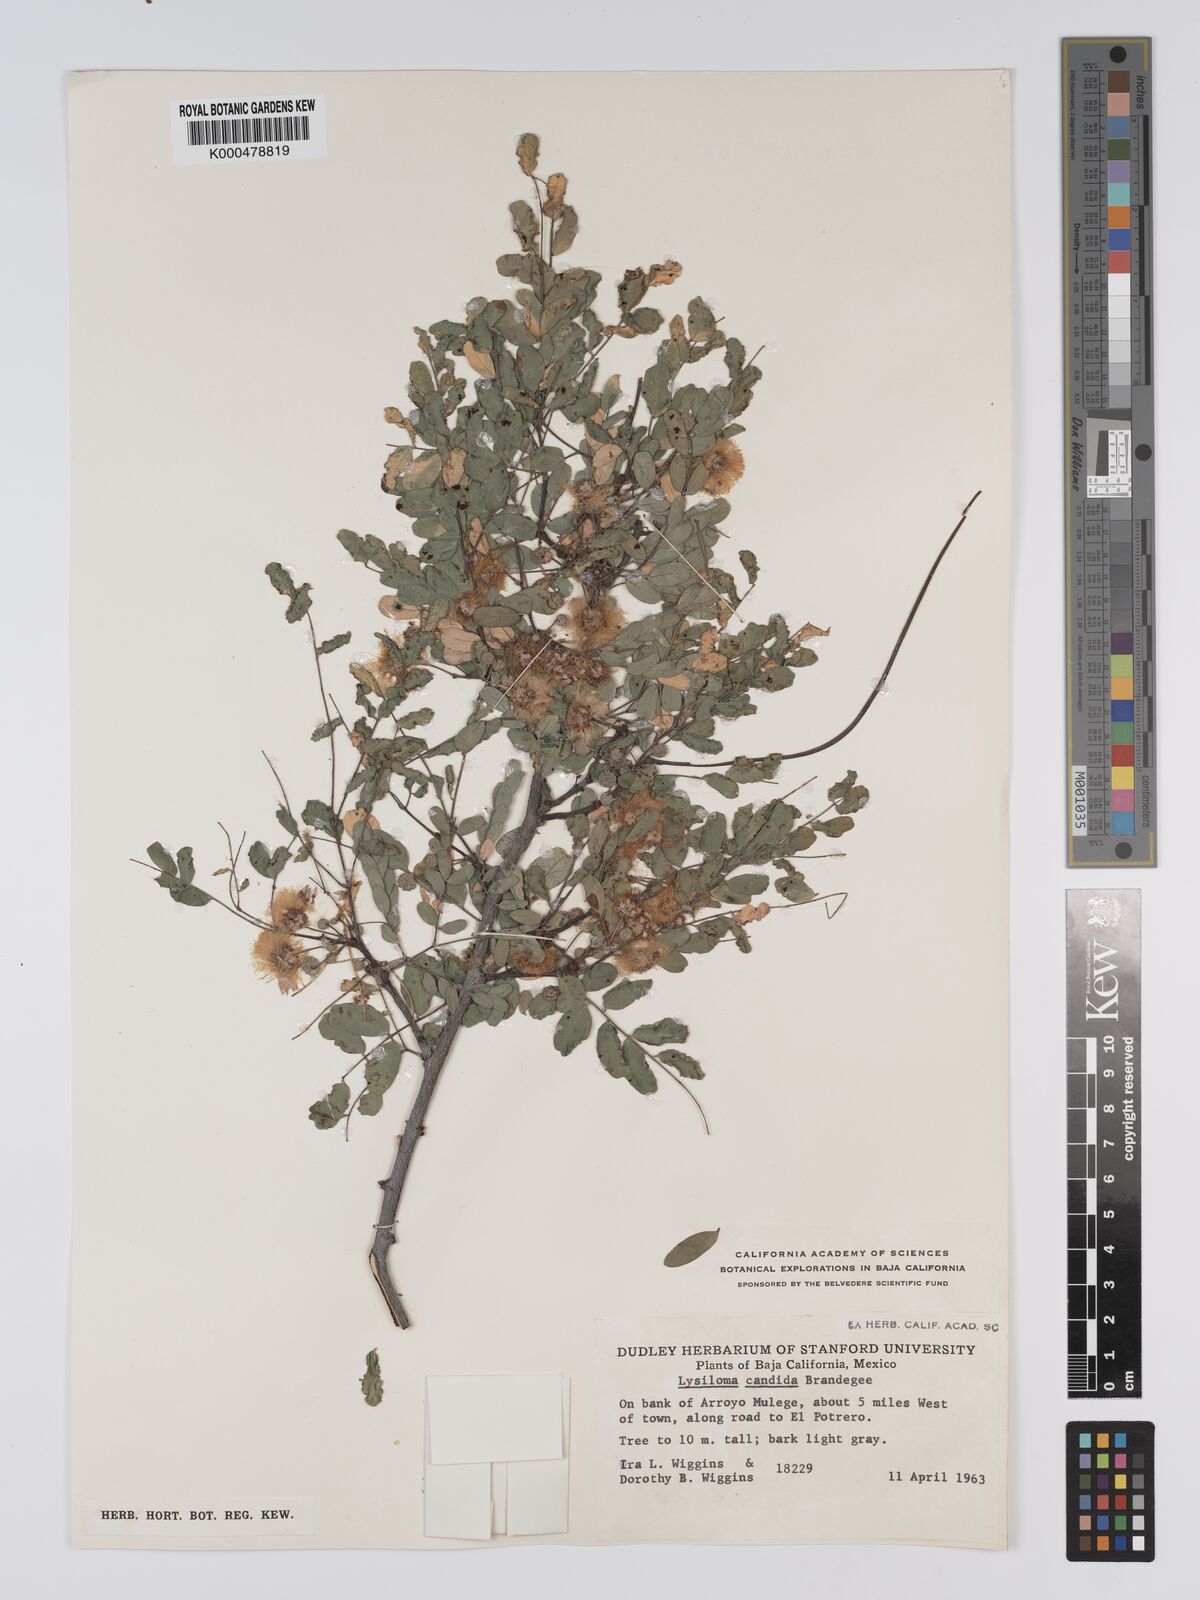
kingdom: Plantae
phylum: Tracheophyta
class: Magnoliopsida
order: Fabales
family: Fabaceae
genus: Lysiloma
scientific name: Lysiloma candidum
